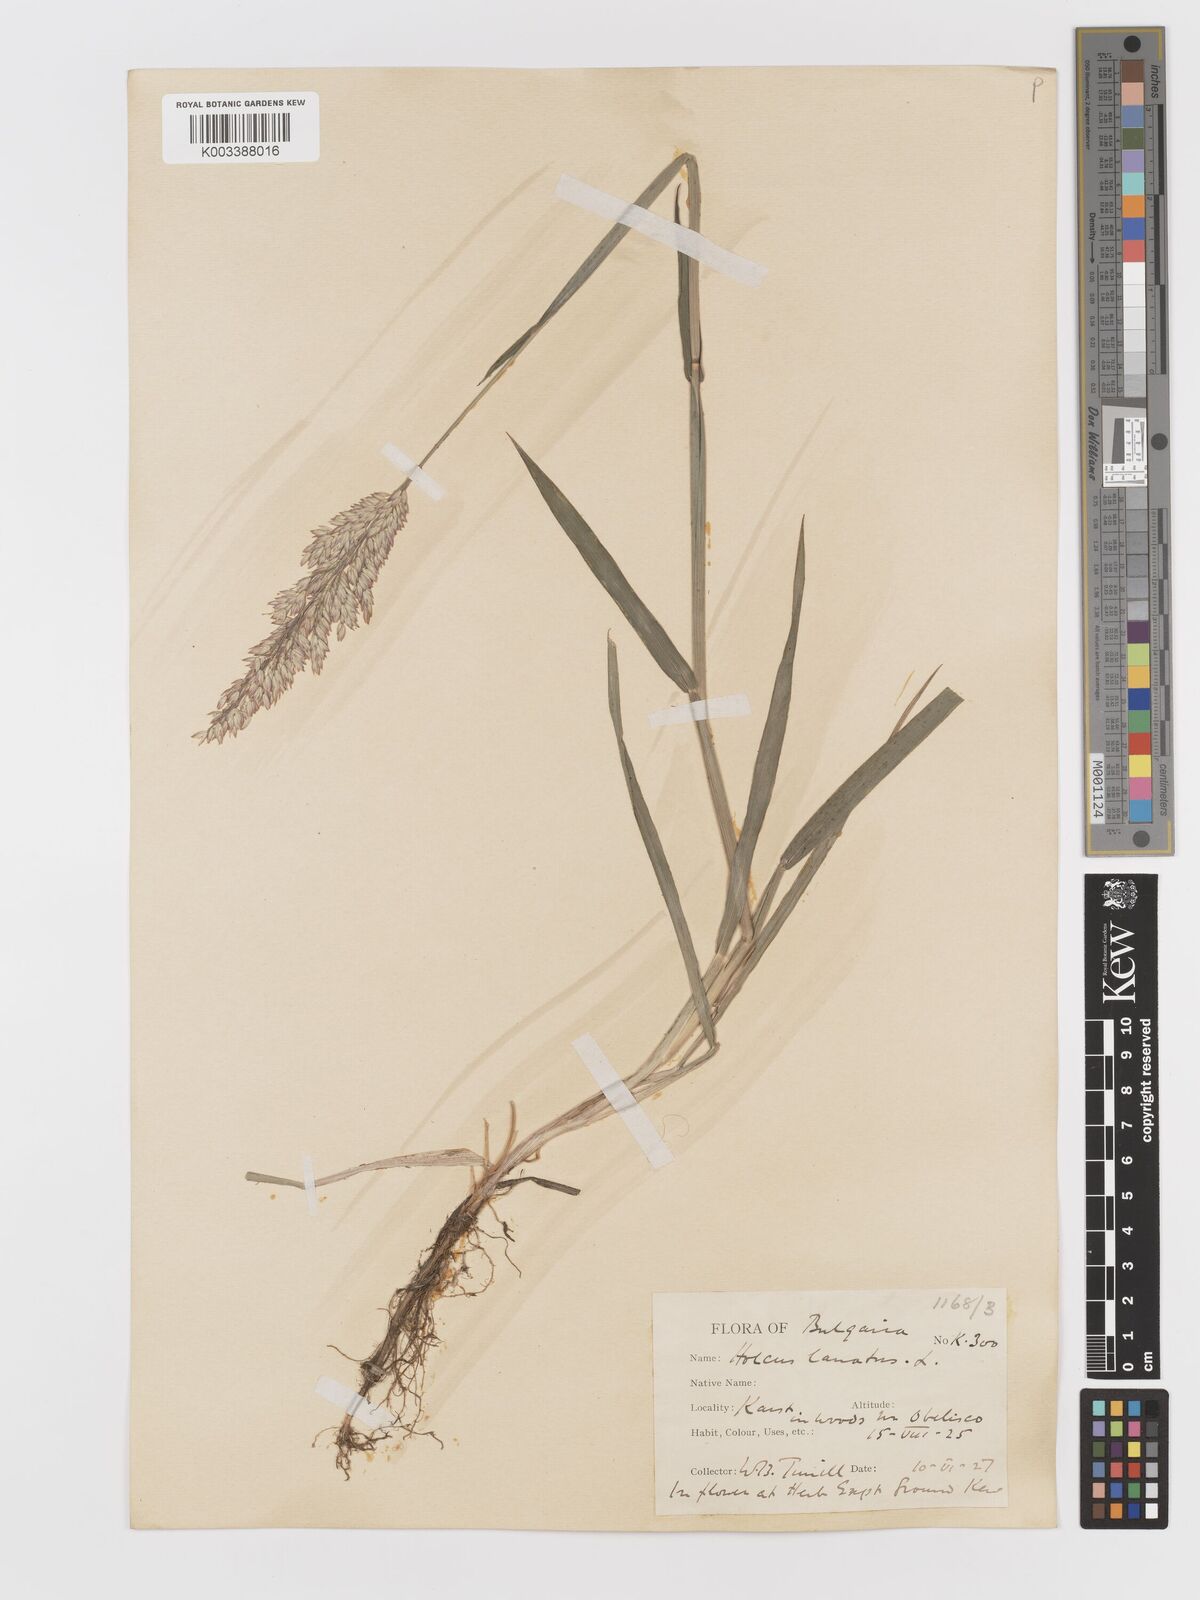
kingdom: Plantae
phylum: Tracheophyta
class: Liliopsida
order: Poales
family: Poaceae
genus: Holcus
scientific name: Holcus lanatus
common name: Yorkshire-fog
